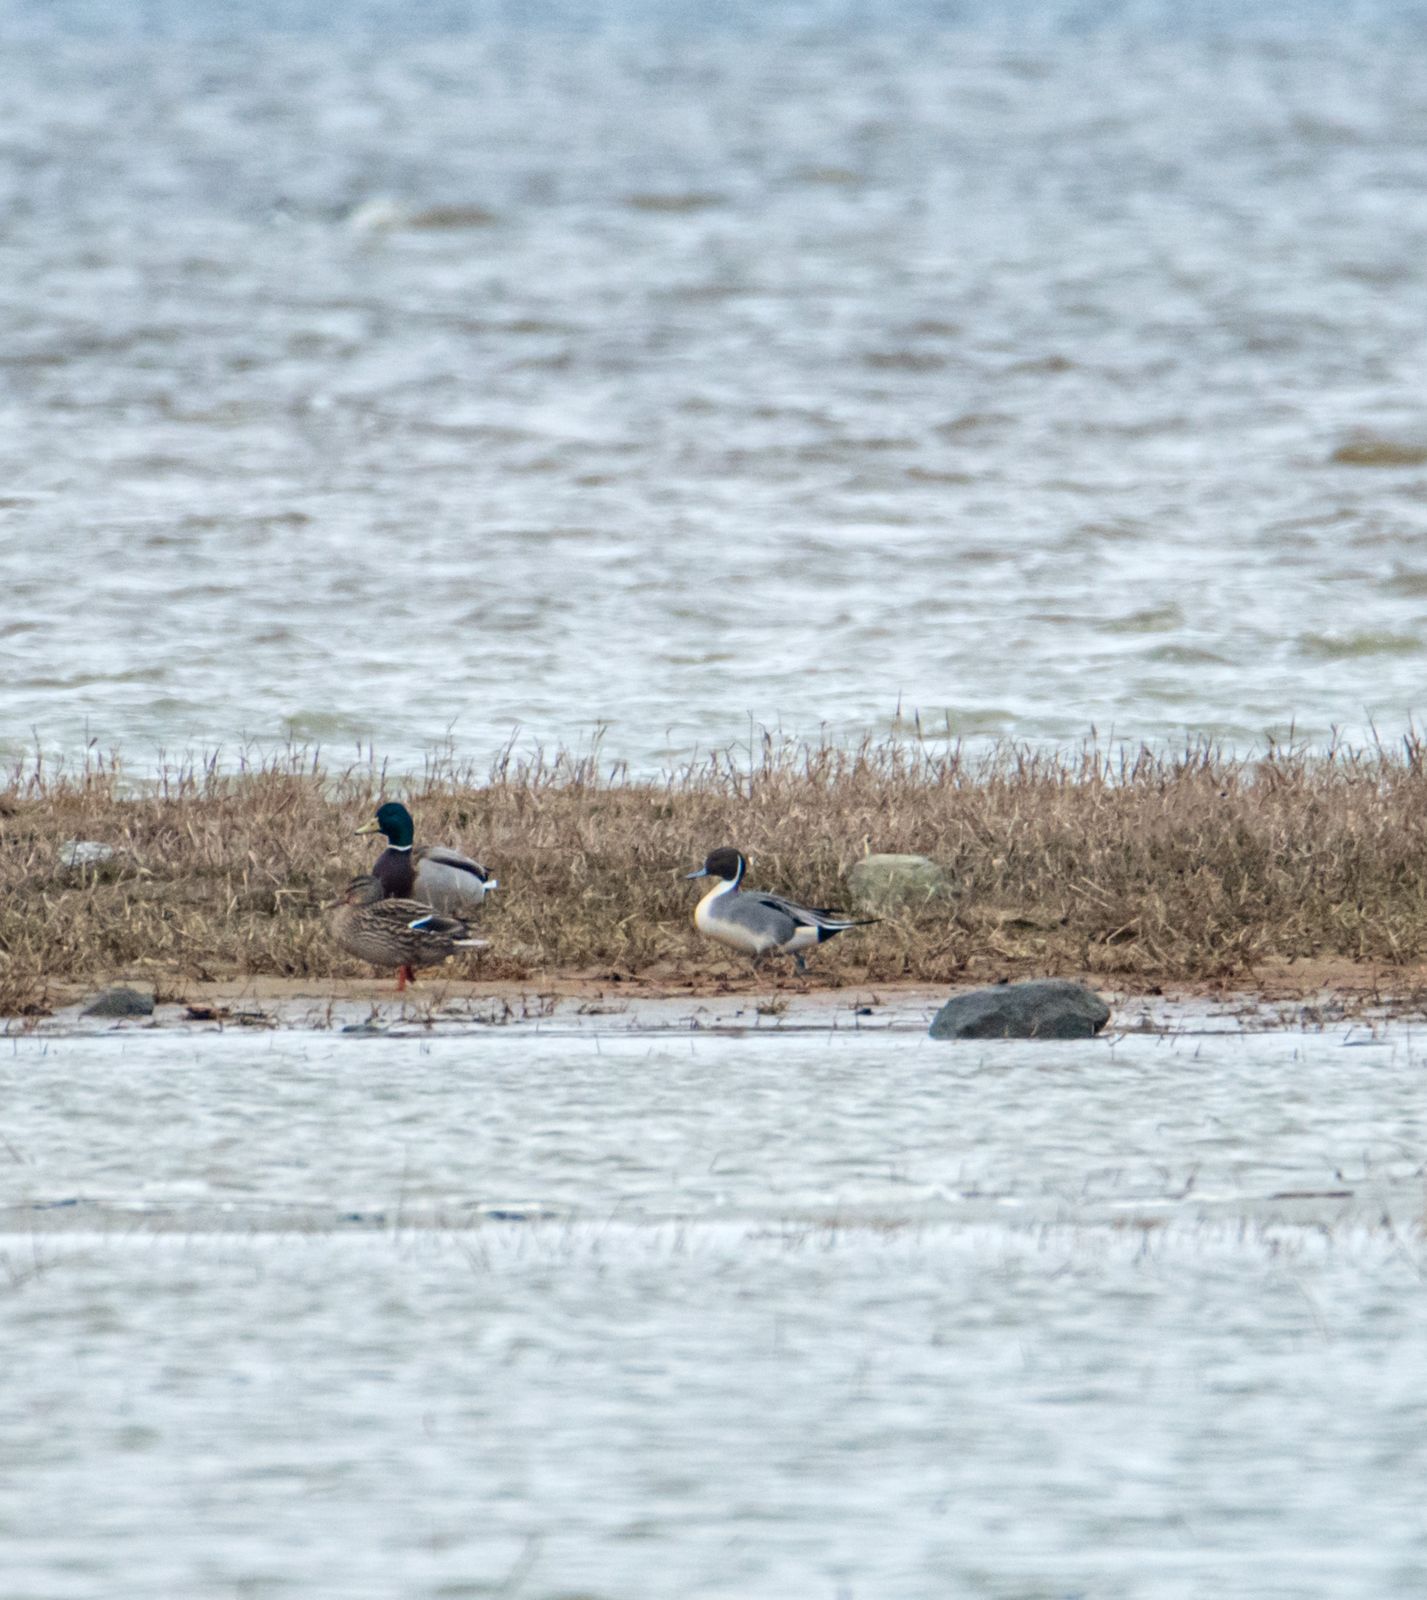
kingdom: Animalia
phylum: Chordata
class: Aves
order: Anseriformes
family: Anatidae
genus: Anas
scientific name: Anas acuta
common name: Northern pintail
